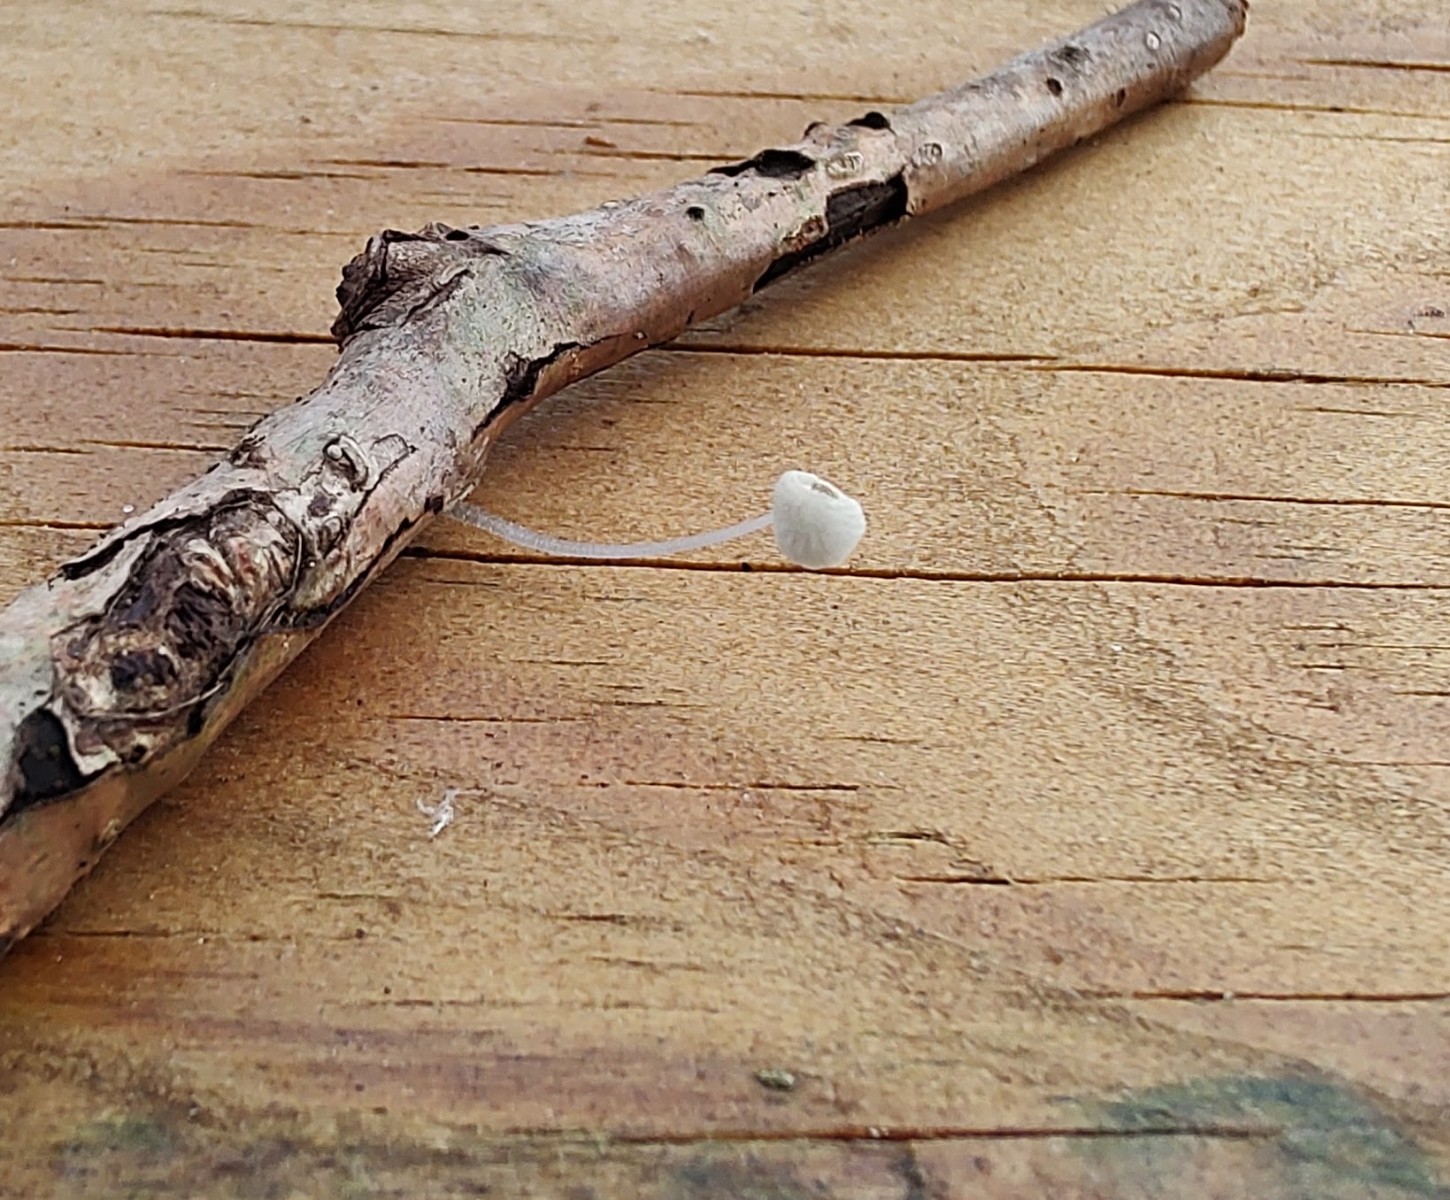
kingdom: Fungi
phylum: Basidiomycota
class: Agaricomycetes
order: Agaricales
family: Mycenaceae
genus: Mycena
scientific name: Mycena tenerrima
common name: pudret huesvamp
